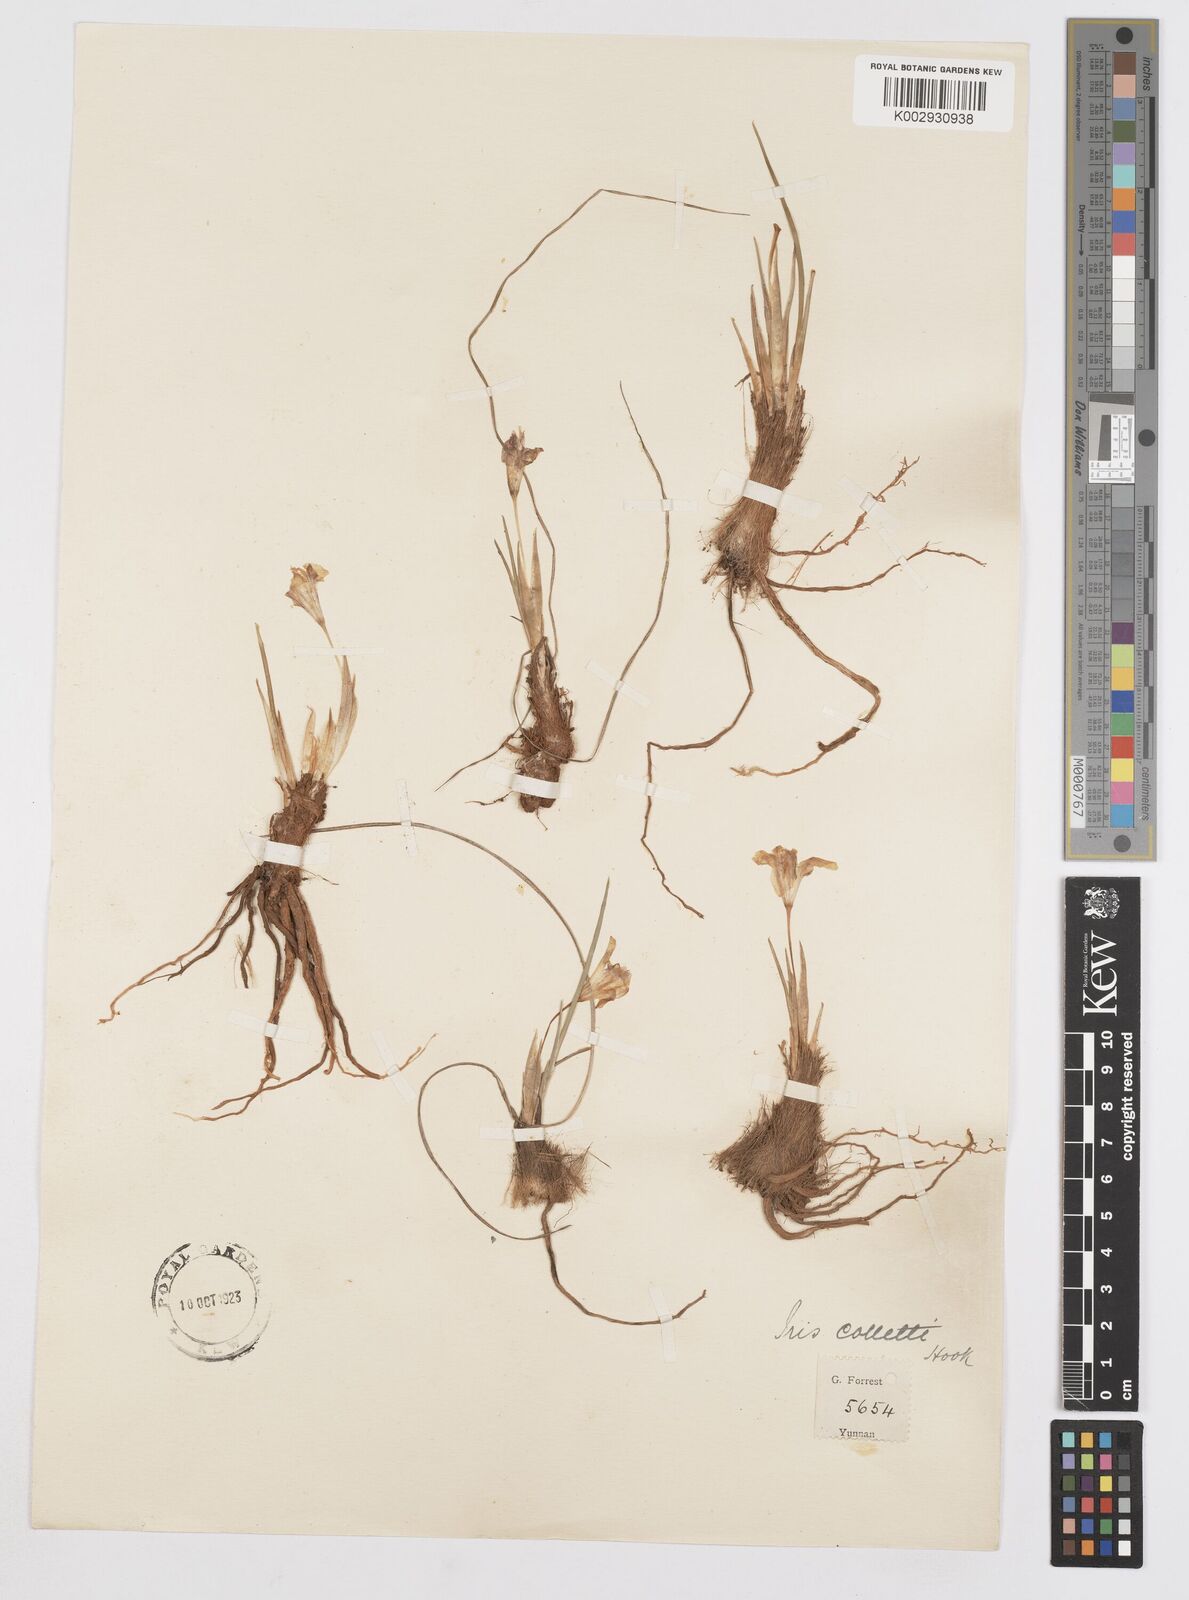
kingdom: Plantae
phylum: Tracheophyta
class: Liliopsida
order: Asparagales
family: Iridaceae
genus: Iris
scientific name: Iris collettii
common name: Plateau iris
